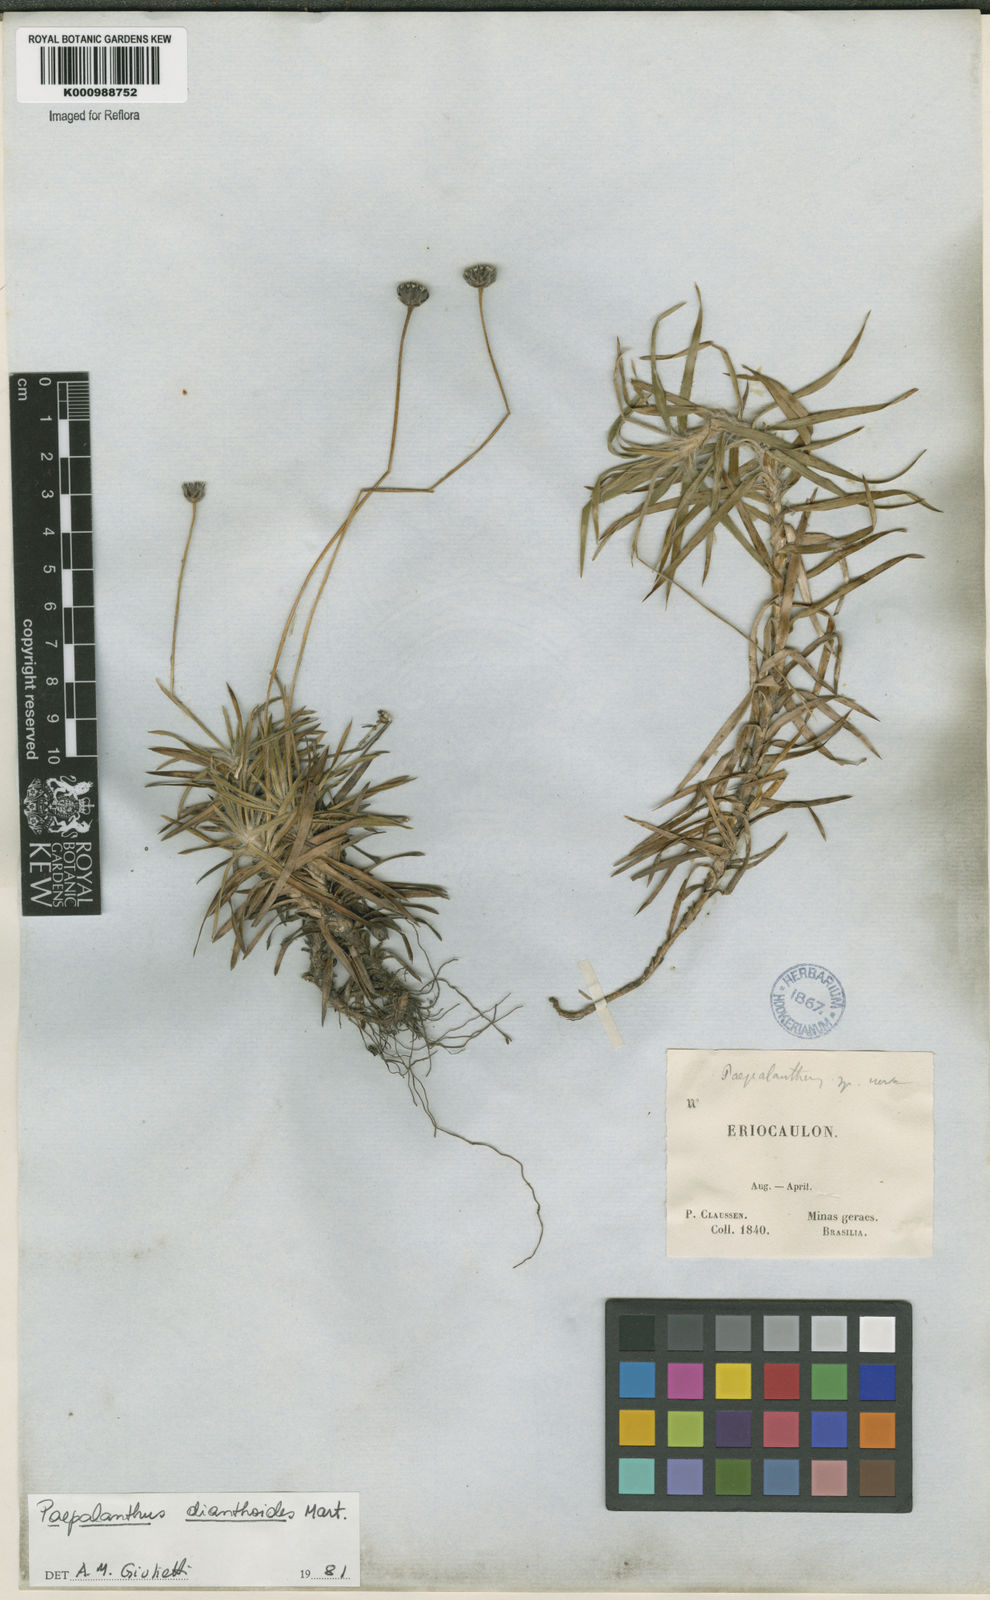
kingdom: Plantae
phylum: Tracheophyta
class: Liliopsida
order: Poales
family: Eriocaulaceae
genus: Paepalanthus
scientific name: Paepalanthus
